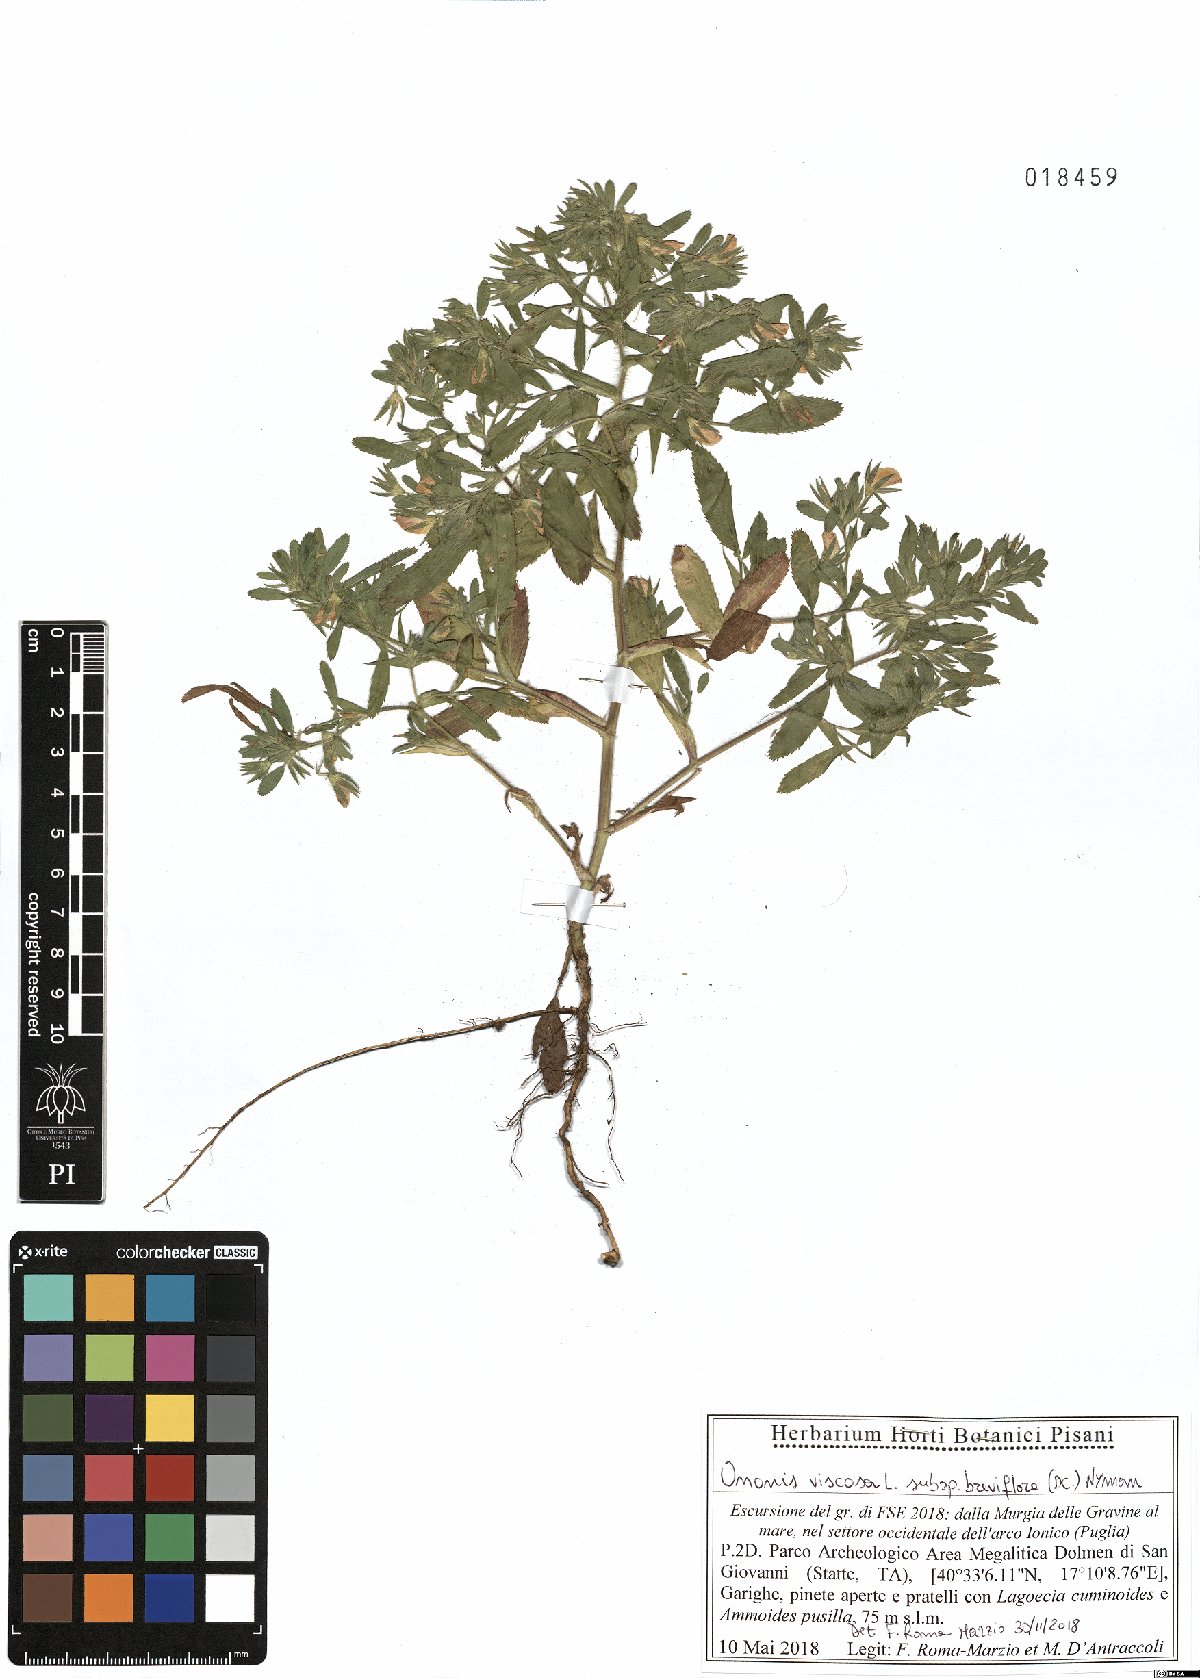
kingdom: Plantae
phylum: Tracheophyta
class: Magnoliopsida
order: Fabales
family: Fabaceae
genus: Ononis
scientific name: Ononis viscosa
